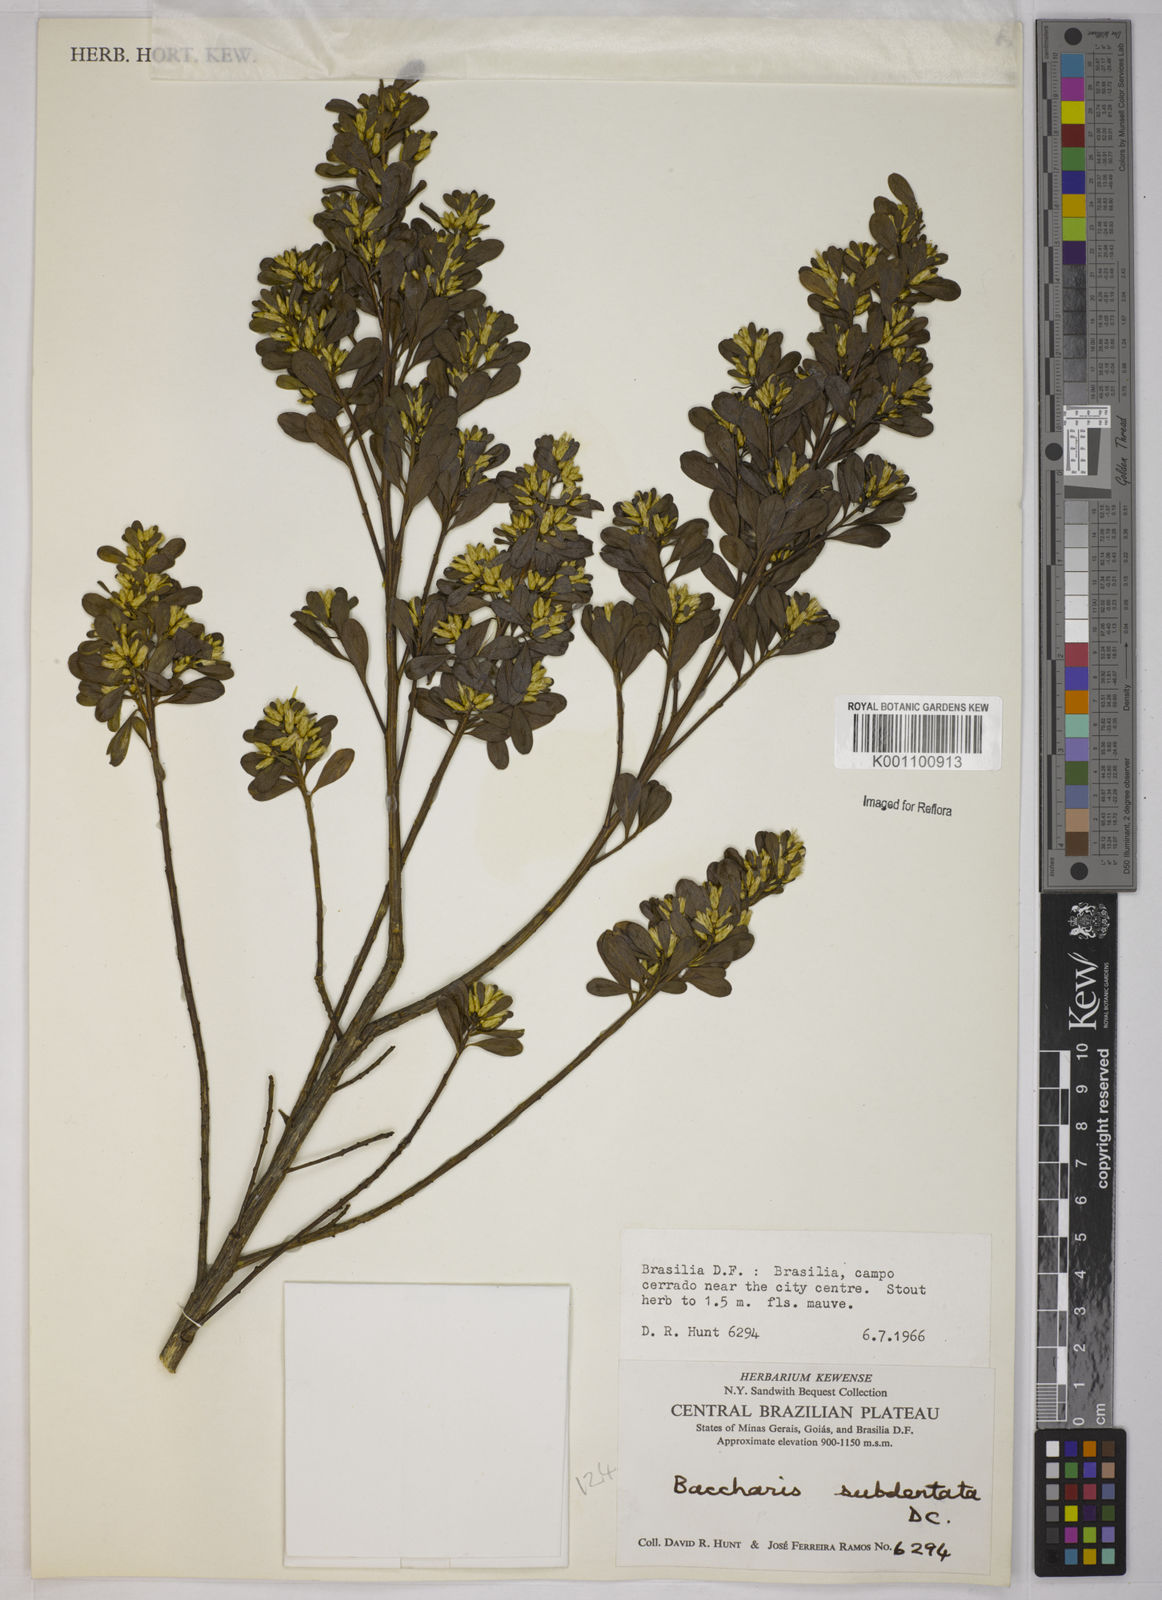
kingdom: Plantae
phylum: Tracheophyta
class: Magnoliopsida
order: Asterales
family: Asteraceae
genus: Baccharis
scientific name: Baccharis subdentata
